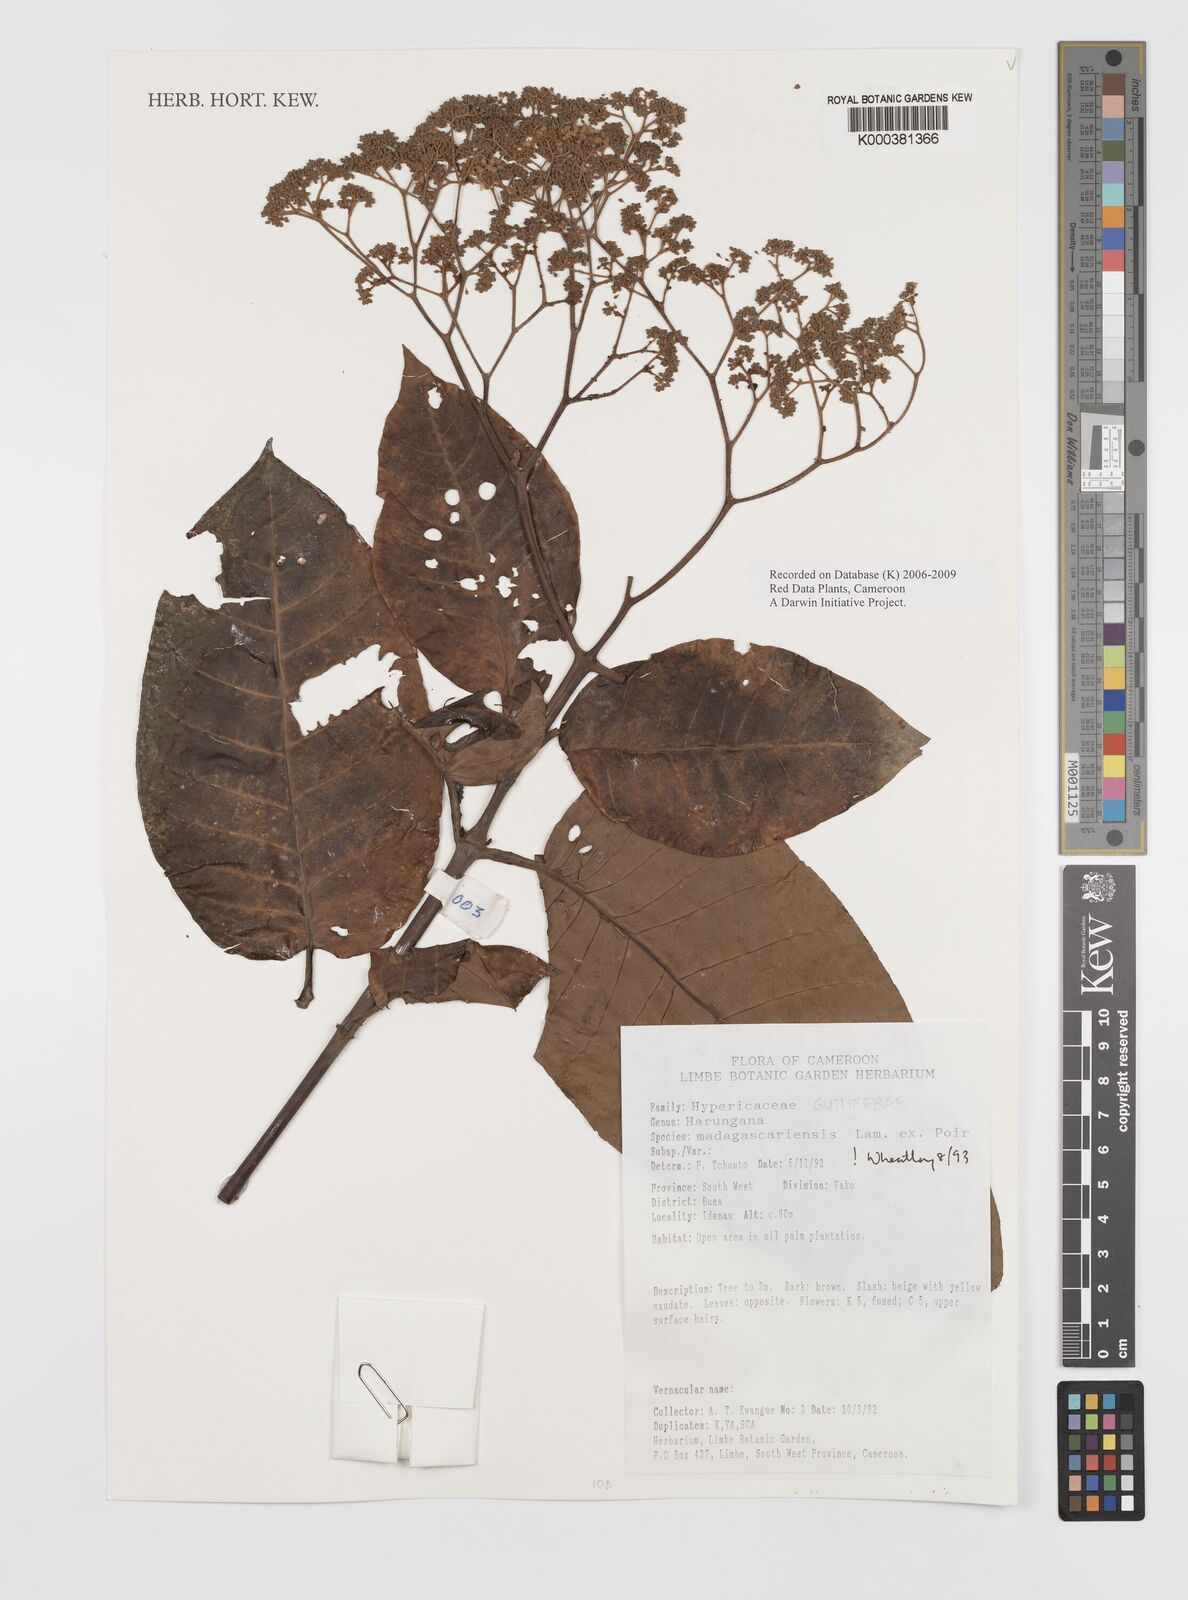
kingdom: Plantae
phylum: Tracheophyta
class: Magnoliopsida
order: Malpighiales
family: Hypericaceae
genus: Harungana
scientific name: Harungana madagascariensis
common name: Orange milktree
